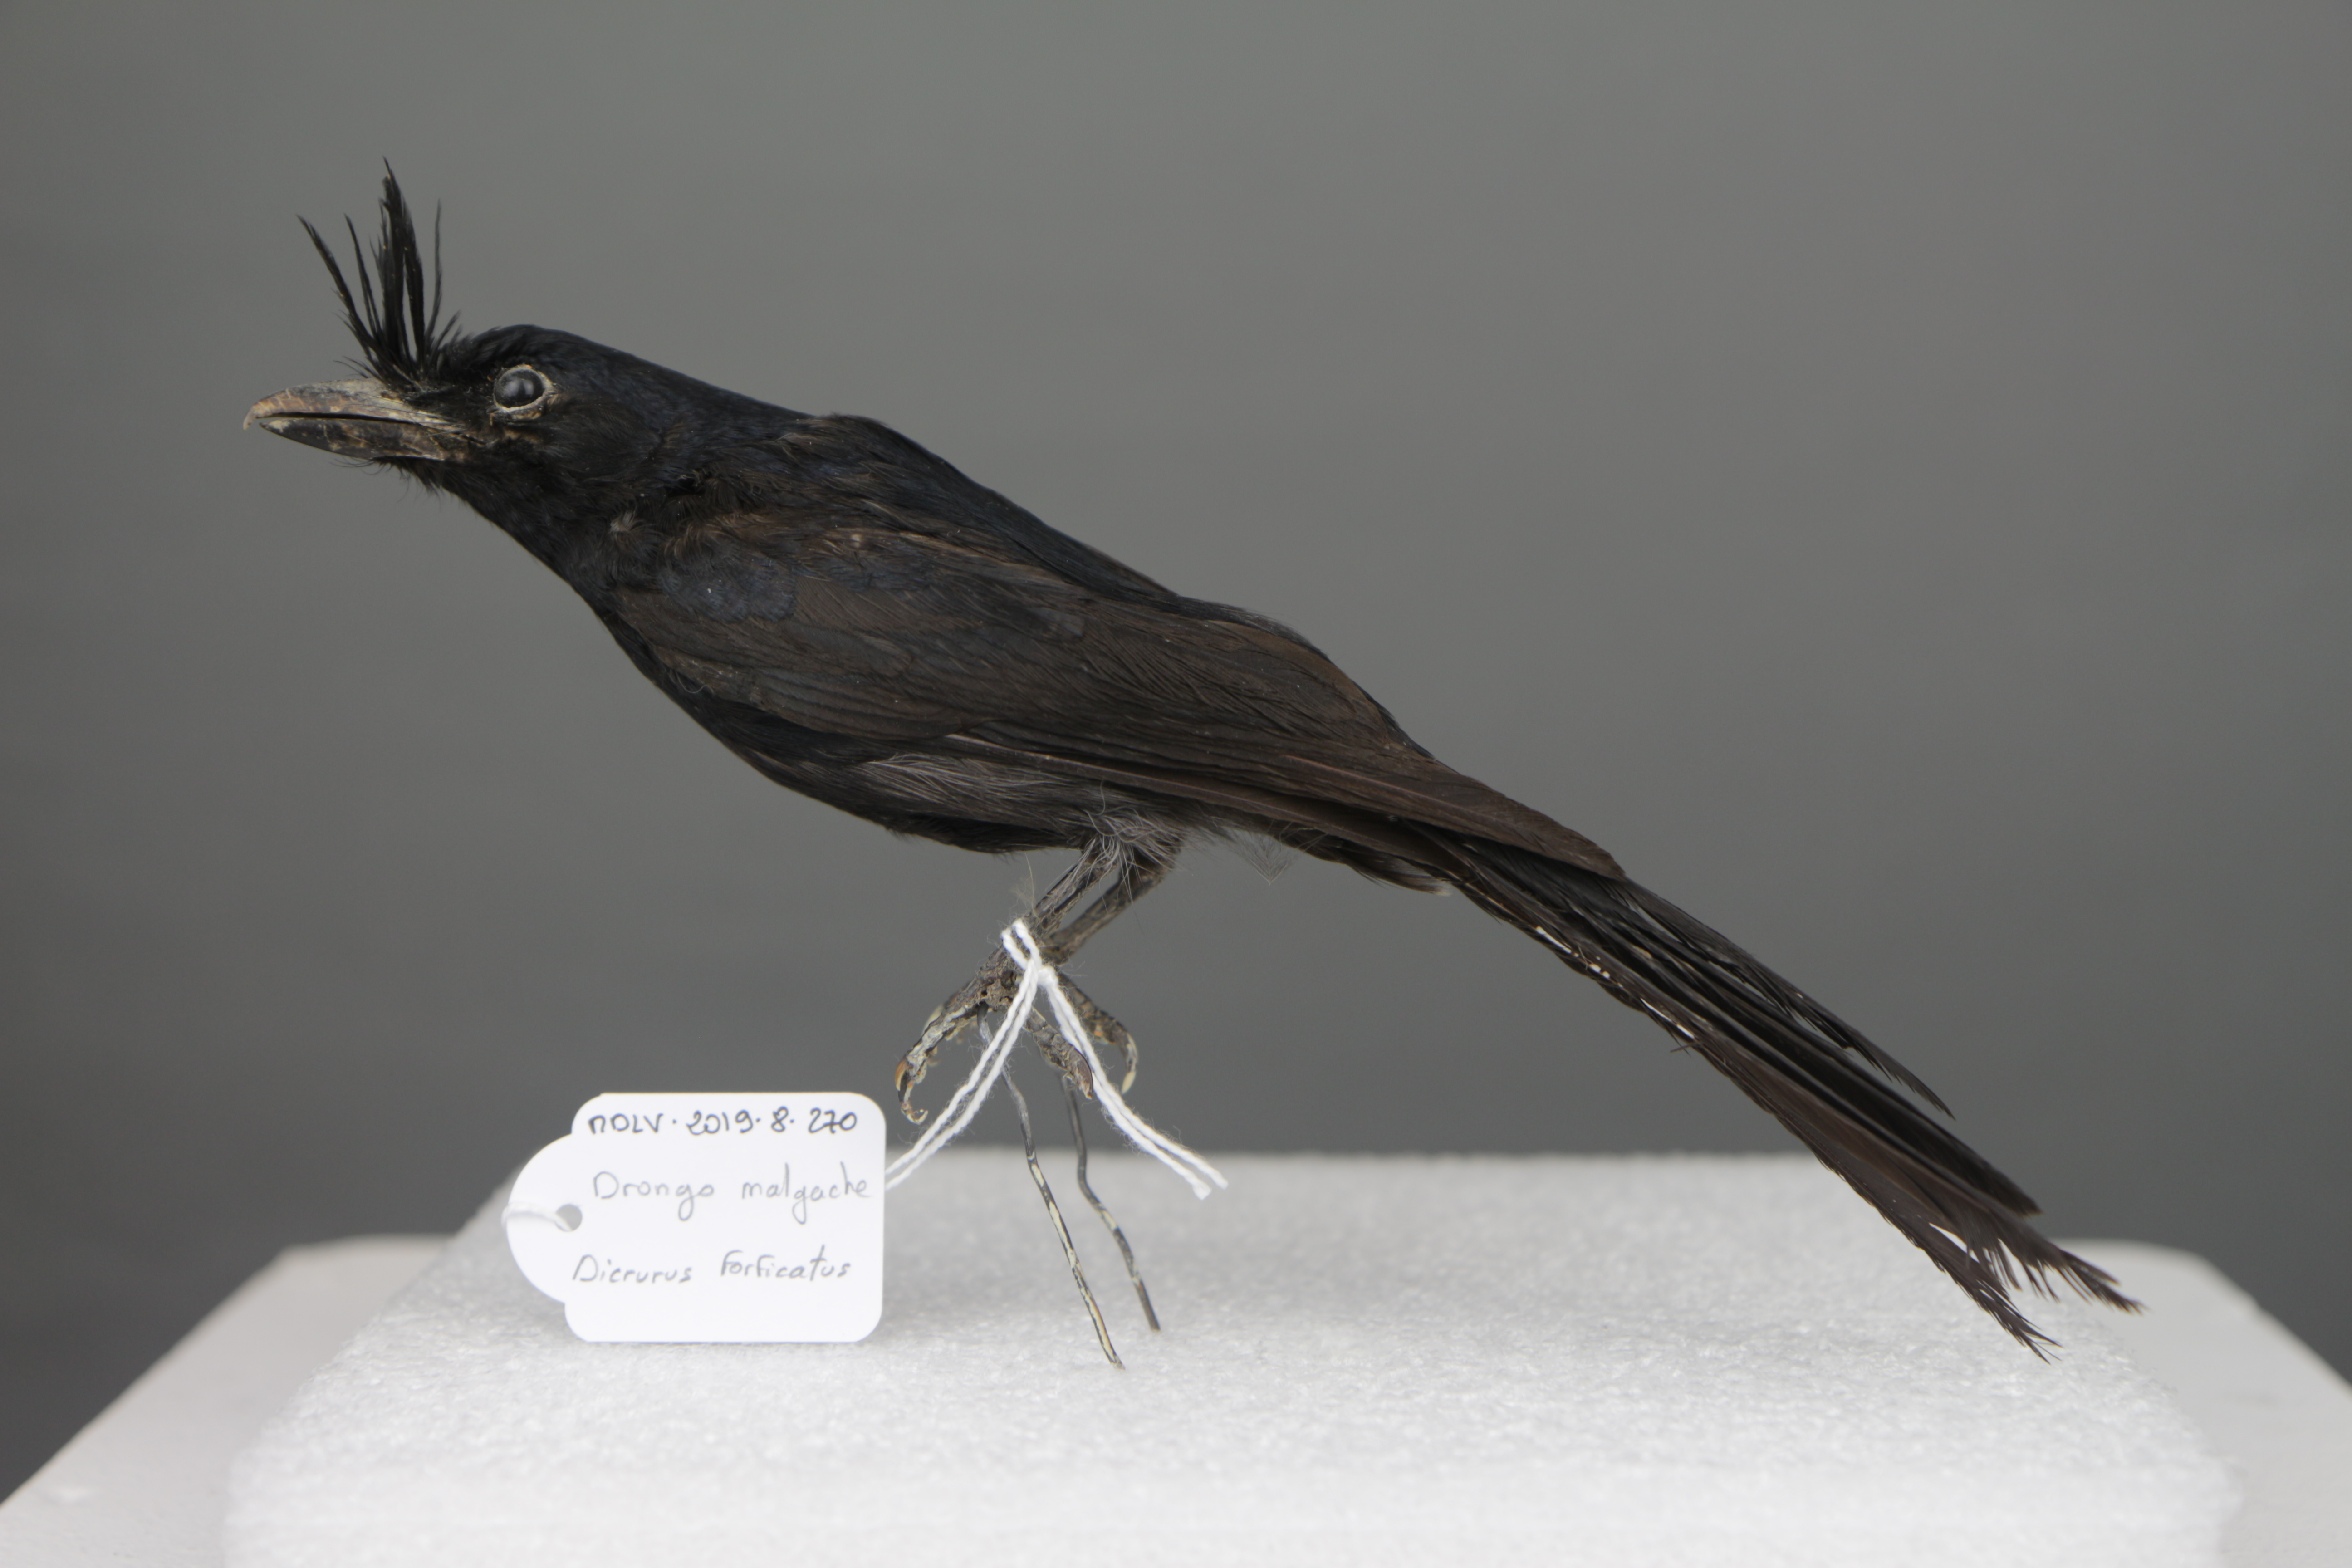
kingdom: Animalia
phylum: Chordata
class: Aves
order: Passeriformes
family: Dicruridae
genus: Dicrurus
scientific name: Dicrurus forficatus
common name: Crested drongo
